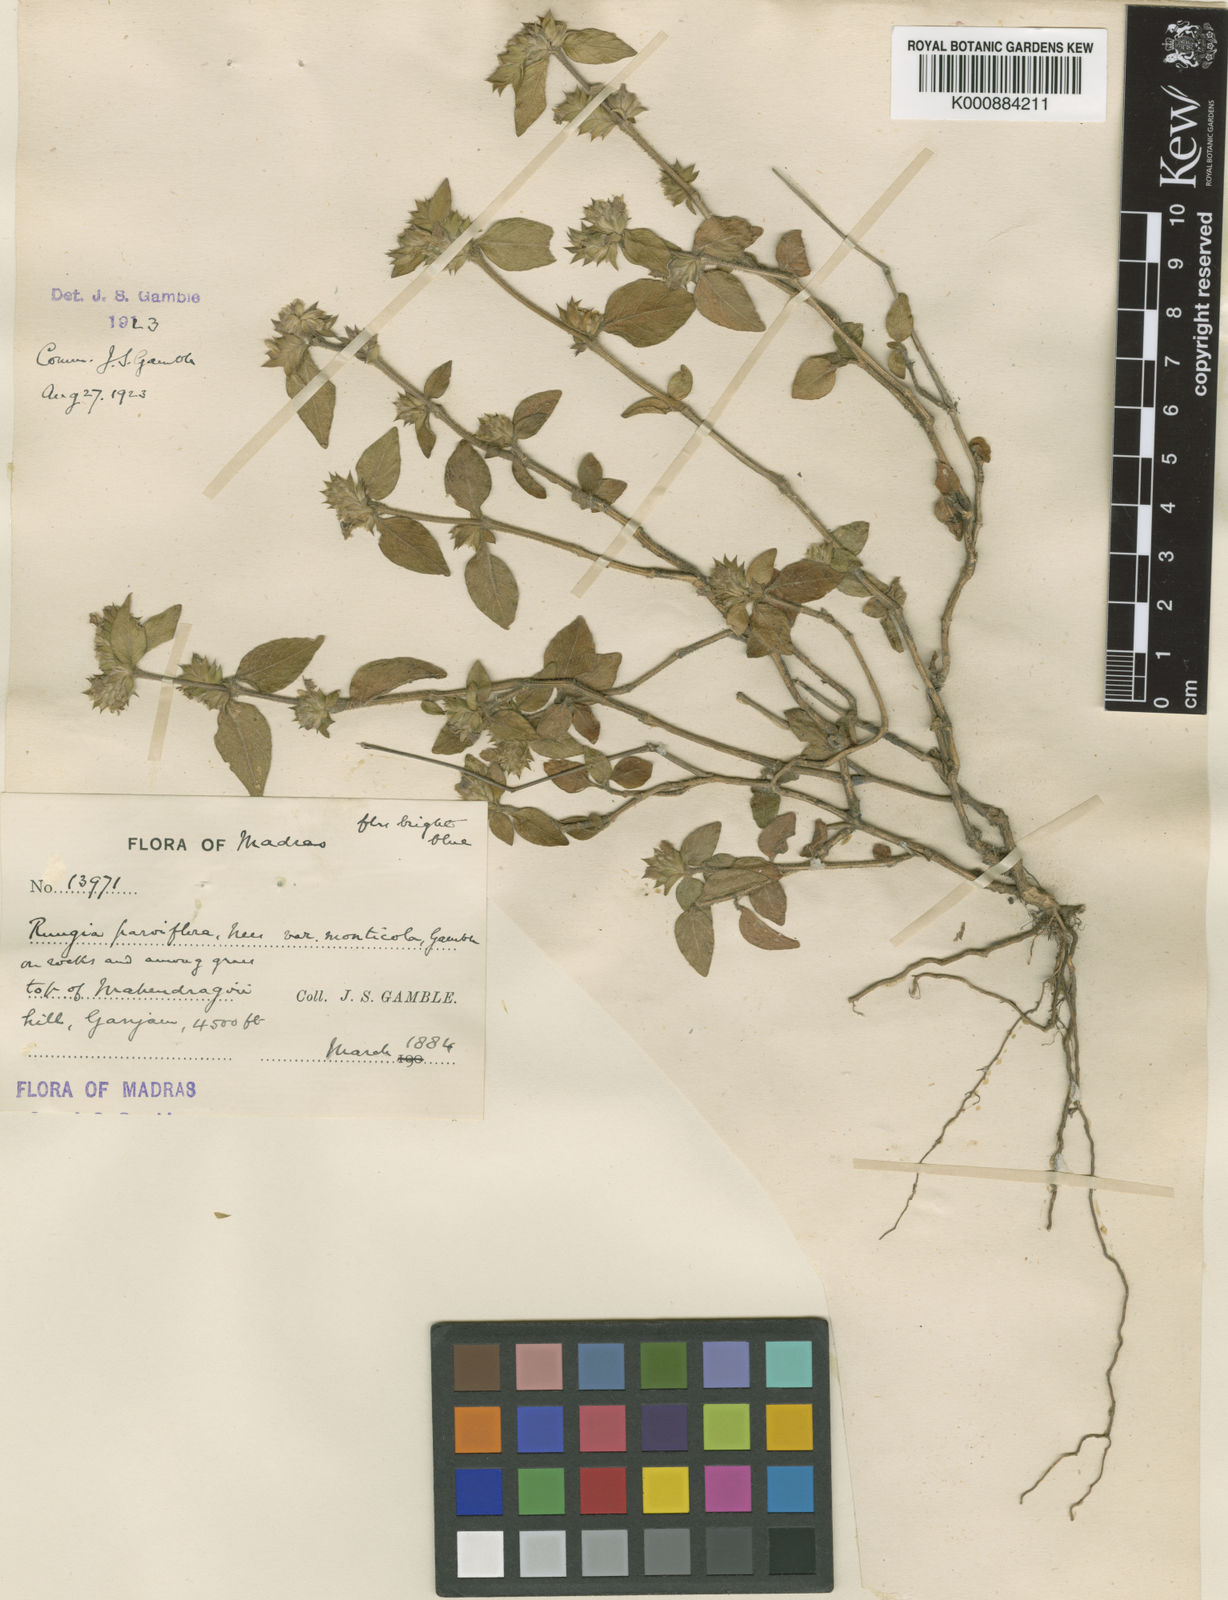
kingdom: Plantae
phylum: Tracheophyta
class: Magnoliopsida
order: Lamiales
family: Acanthaceae
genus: Justicia
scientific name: Justicia
